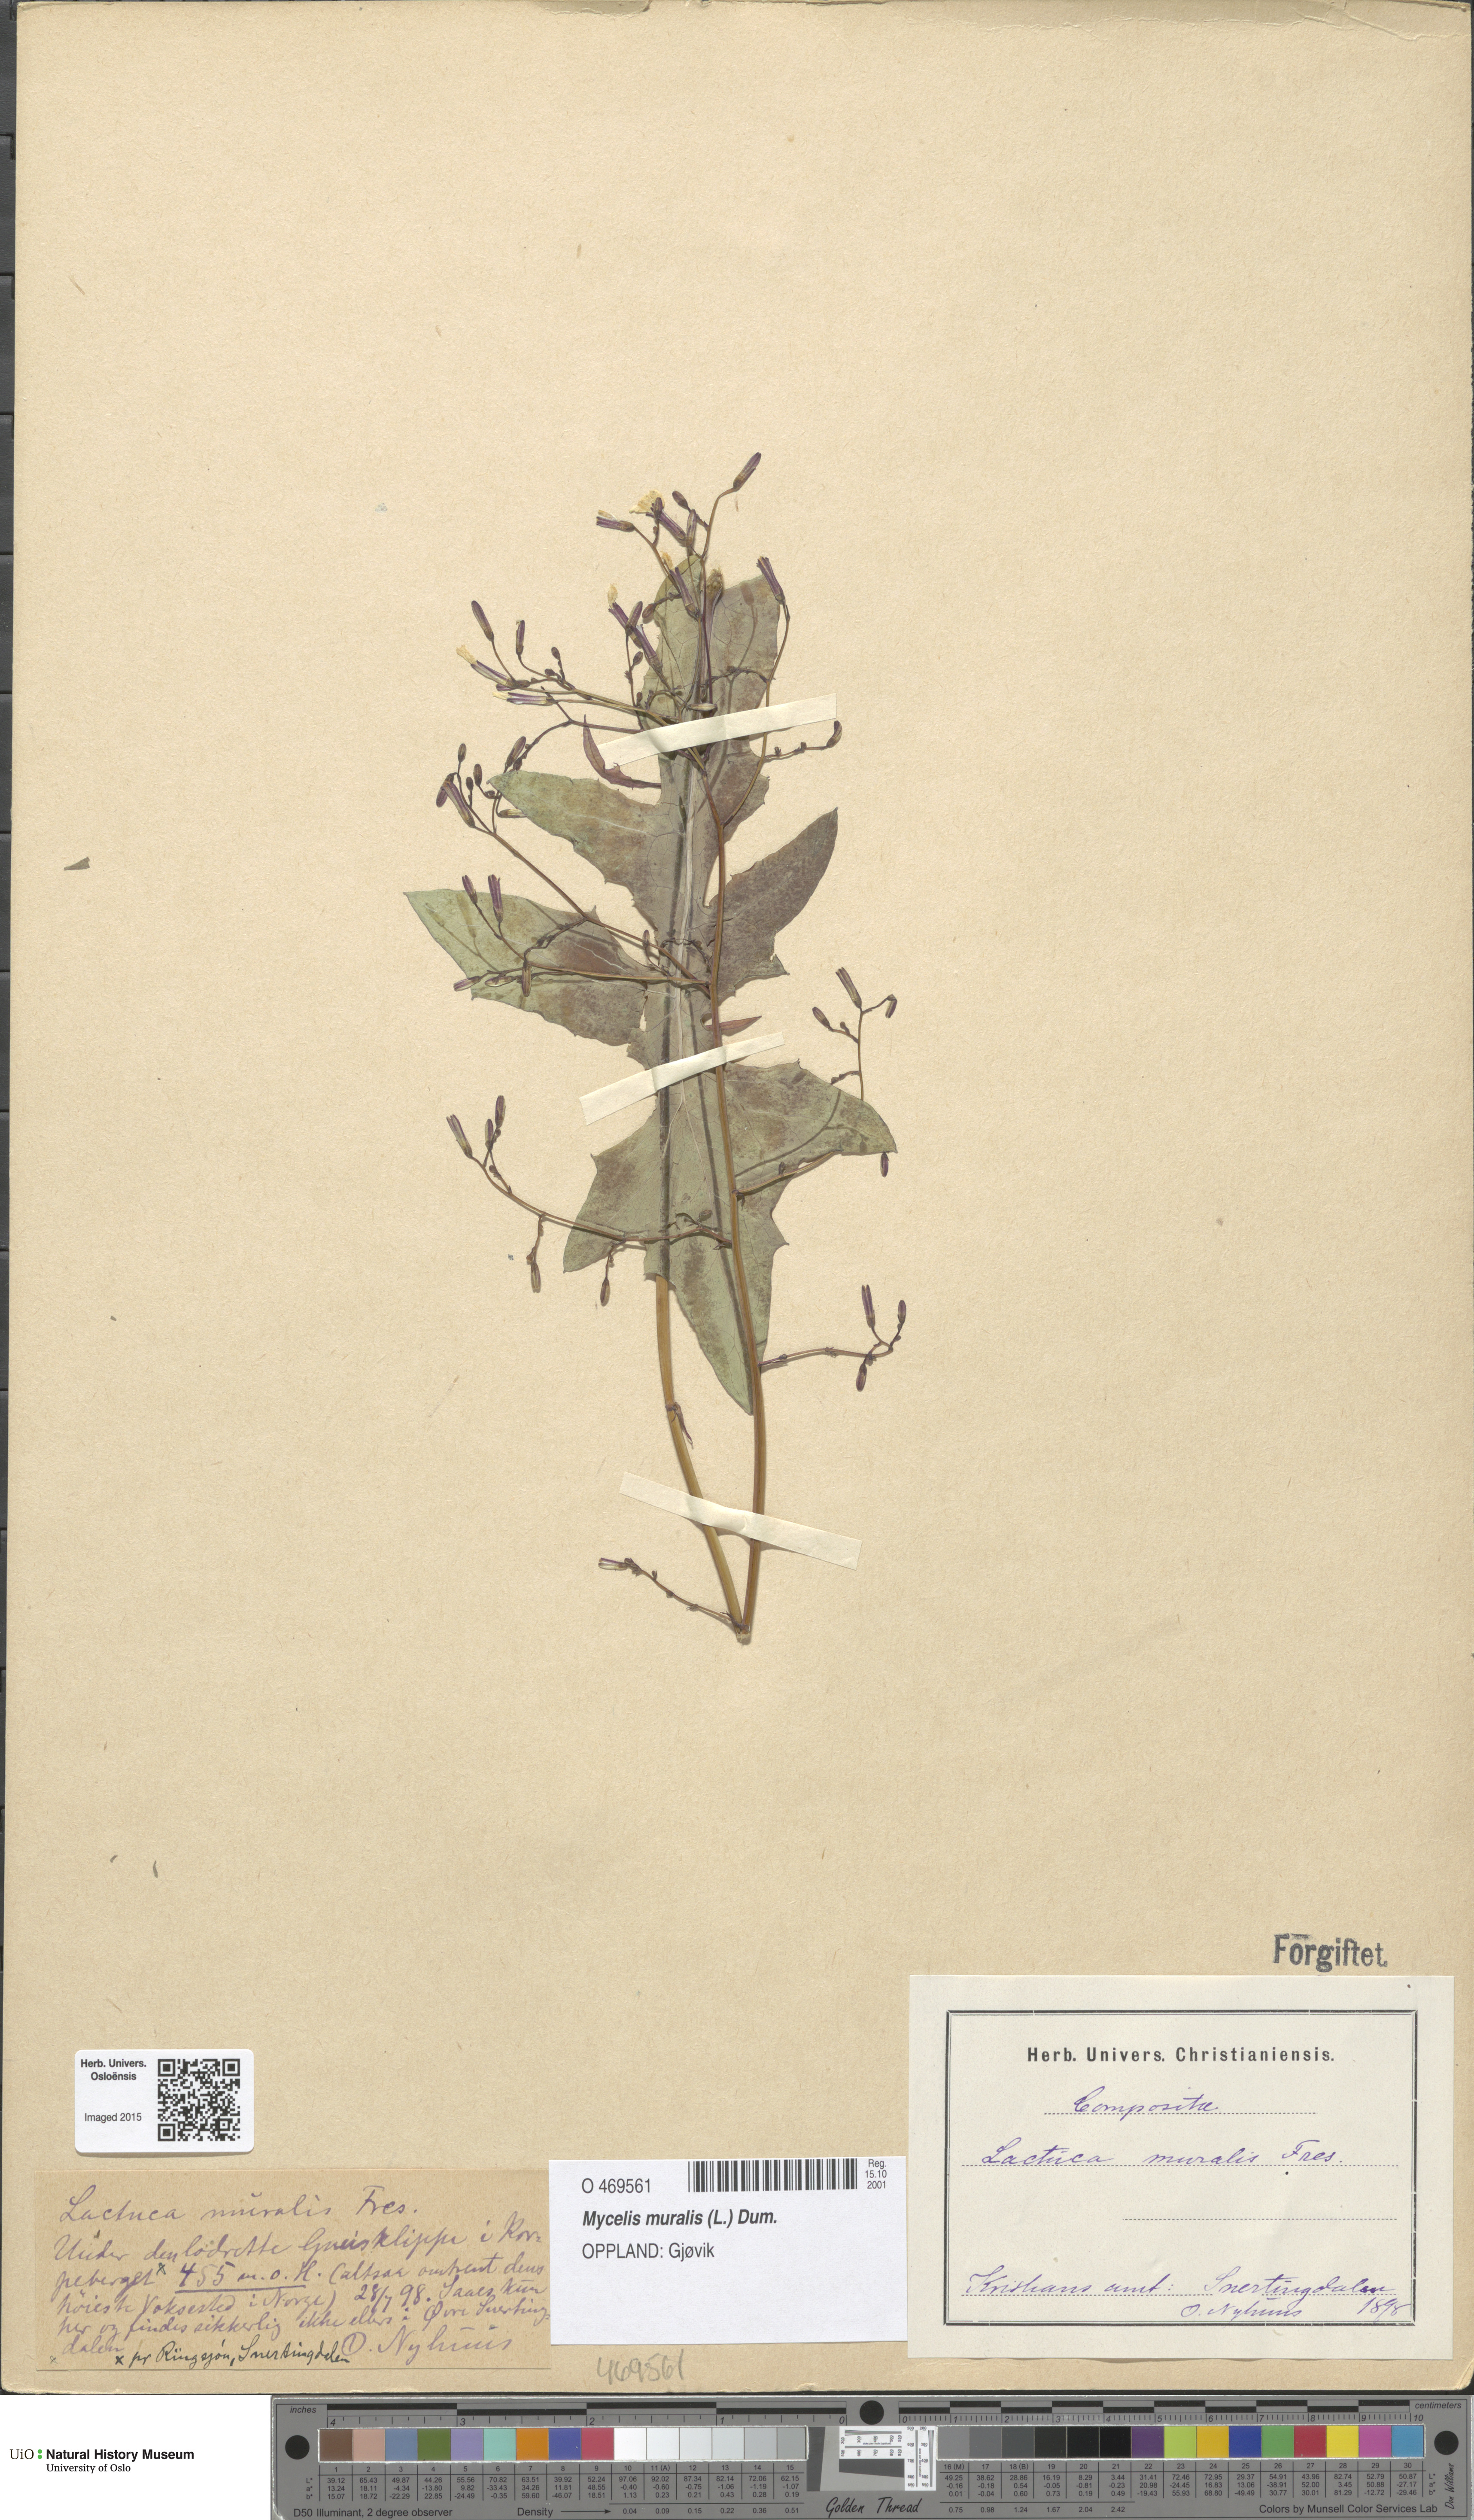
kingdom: Plantae
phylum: Tracheophyta
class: Magnoliopsida
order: Asterales
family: Asteraceae
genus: Mycelis
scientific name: Mycelis muralis
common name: Wall lettuce
